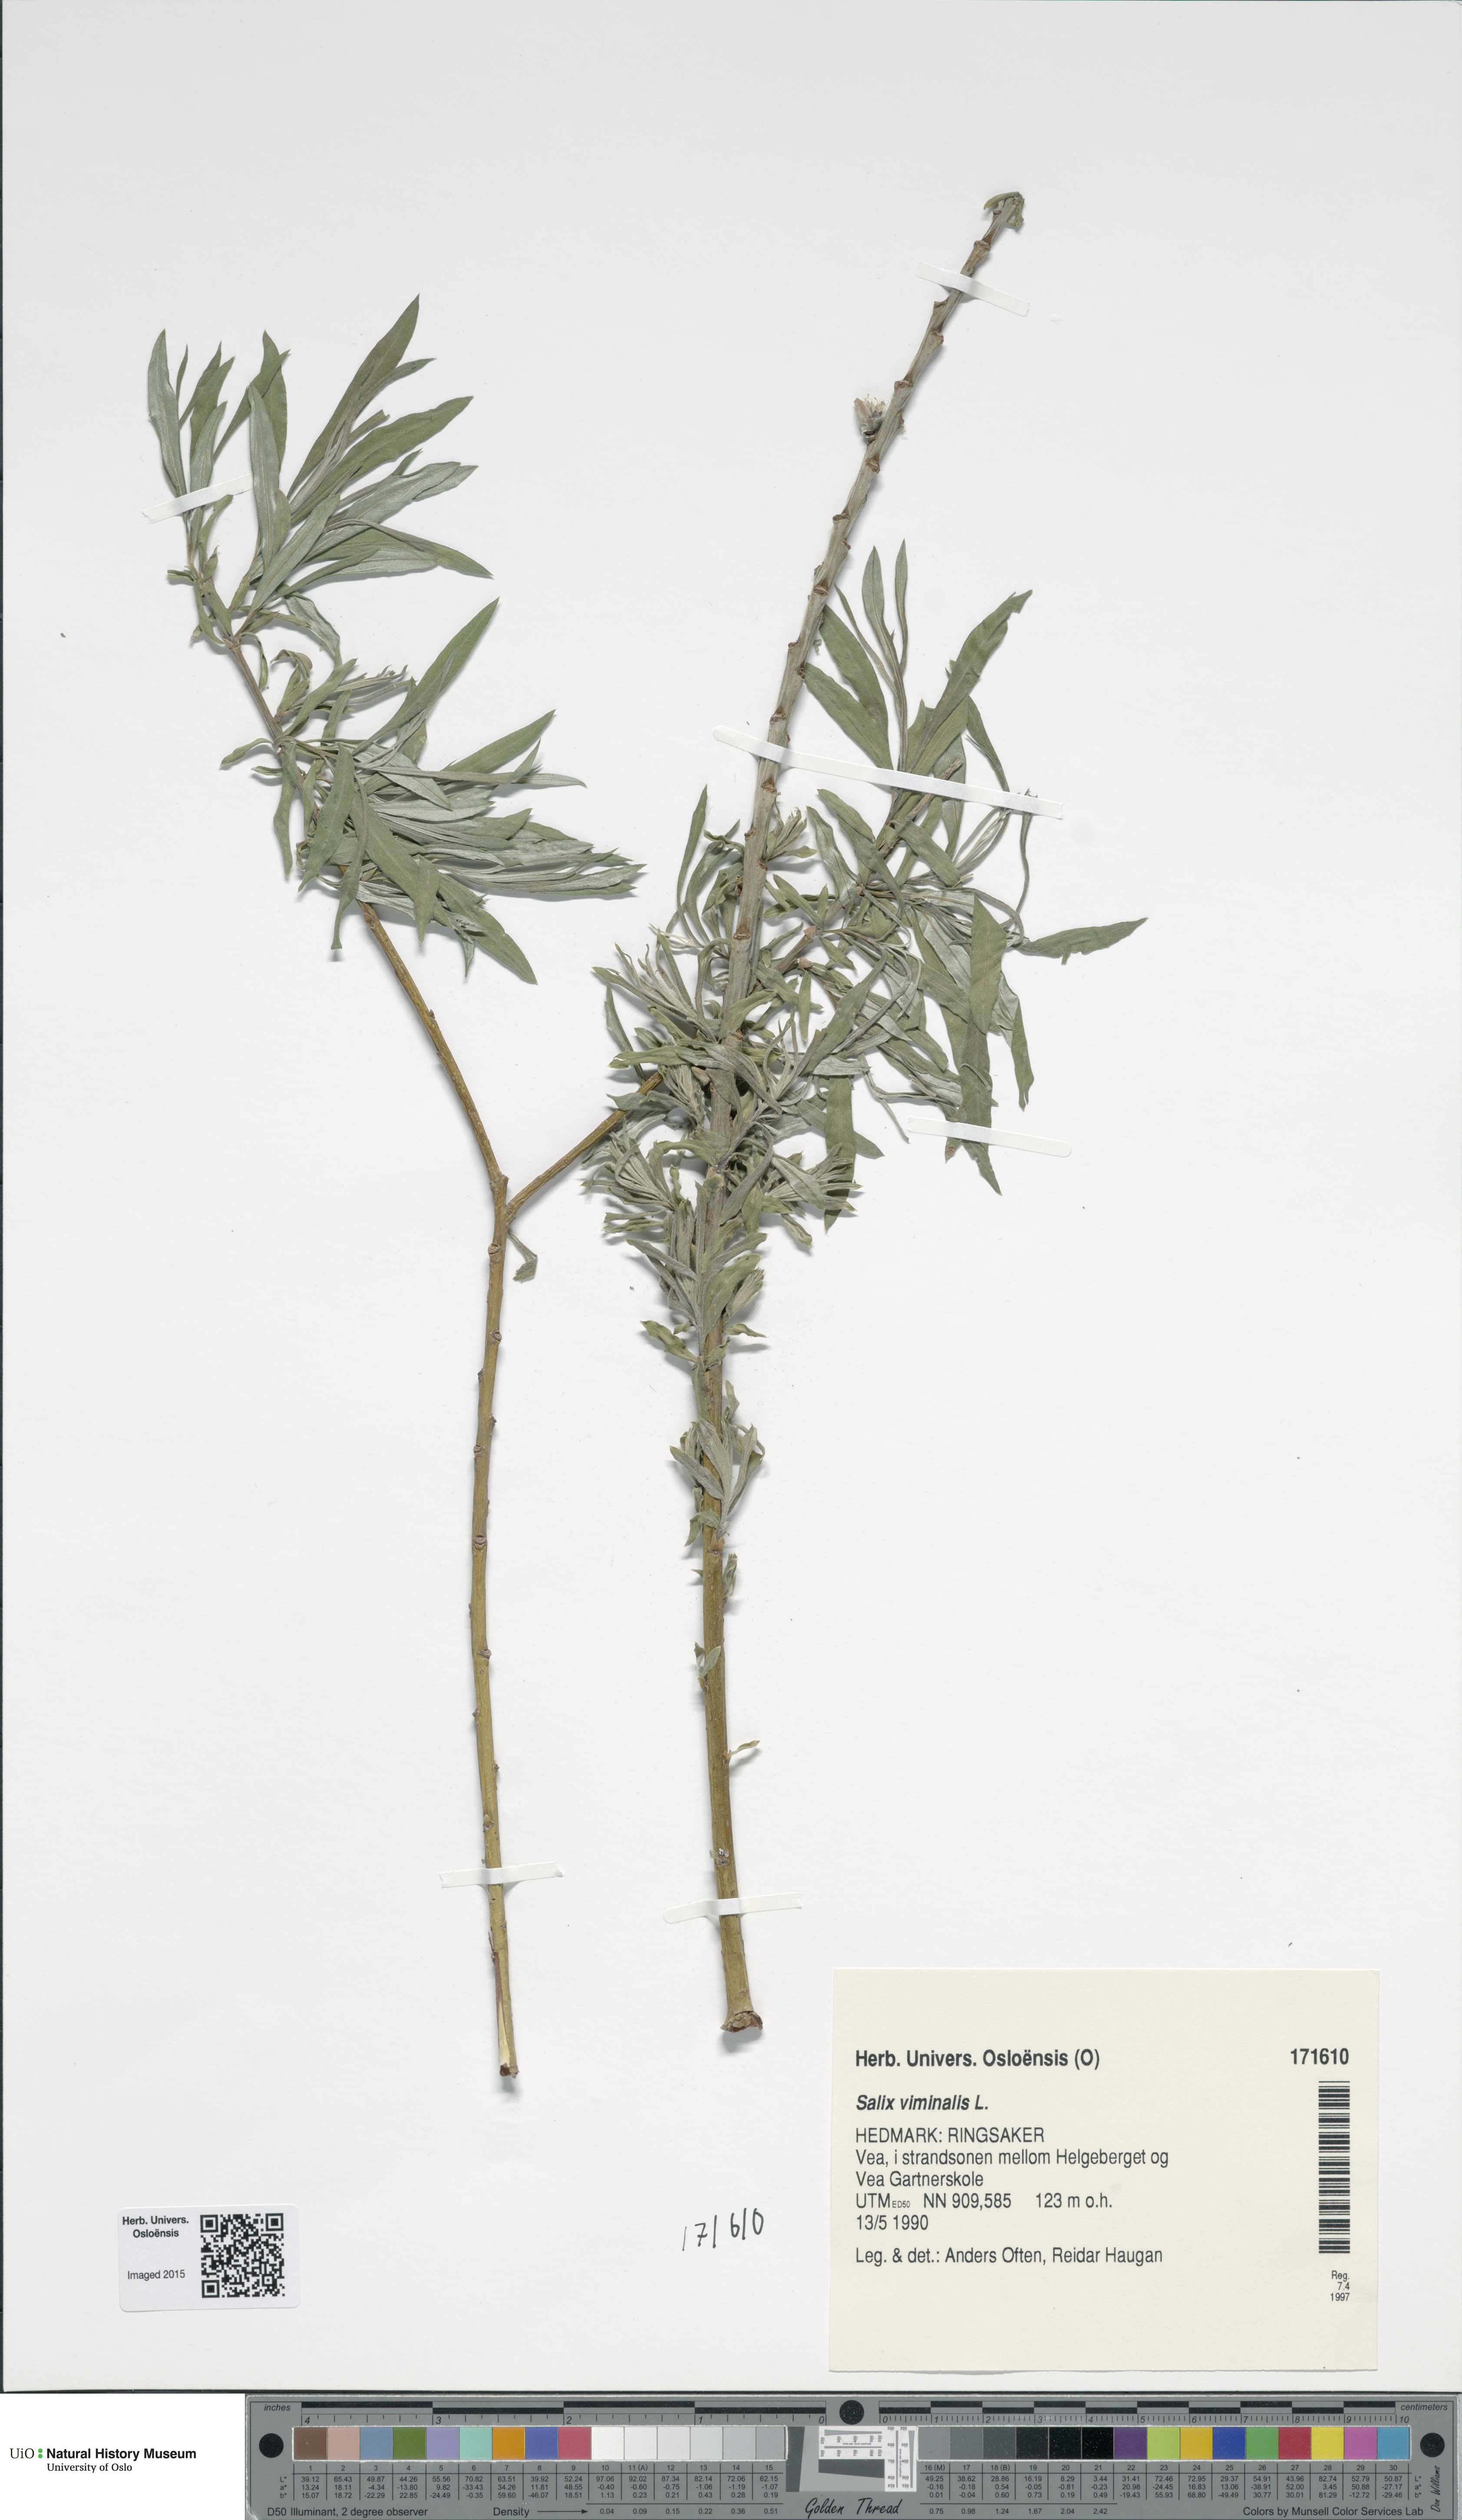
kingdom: Plantae
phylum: Tracheophyta
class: Magnoliopsida
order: Malpighiales
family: Salicaceae
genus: Salix
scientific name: Salix viminalis
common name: Osier
